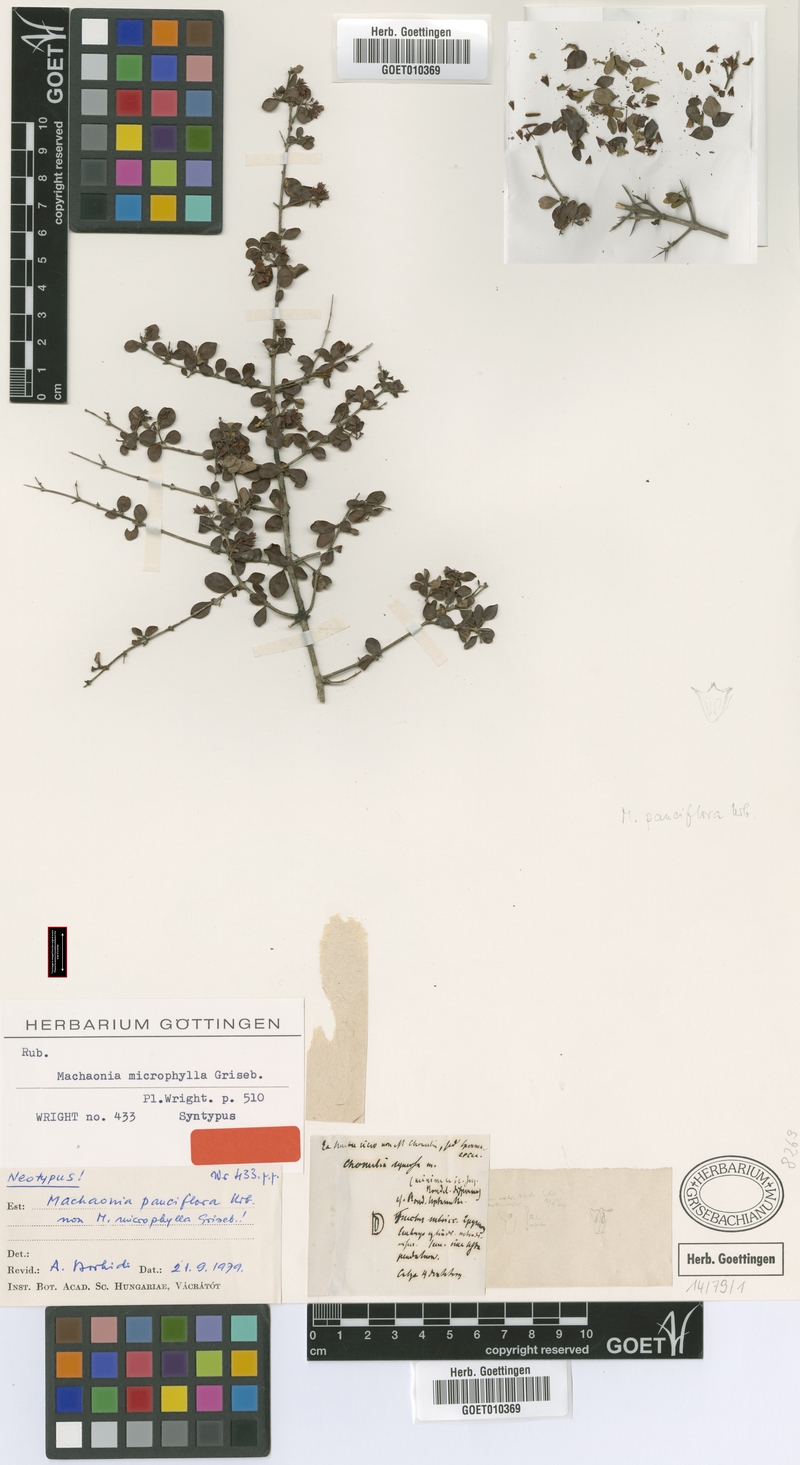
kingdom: Plantae
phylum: Tracheophyta
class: Magnoliopsida
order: Gentianales
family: Rubiaceae
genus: Machaonia
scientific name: Machaonia pauciflora
